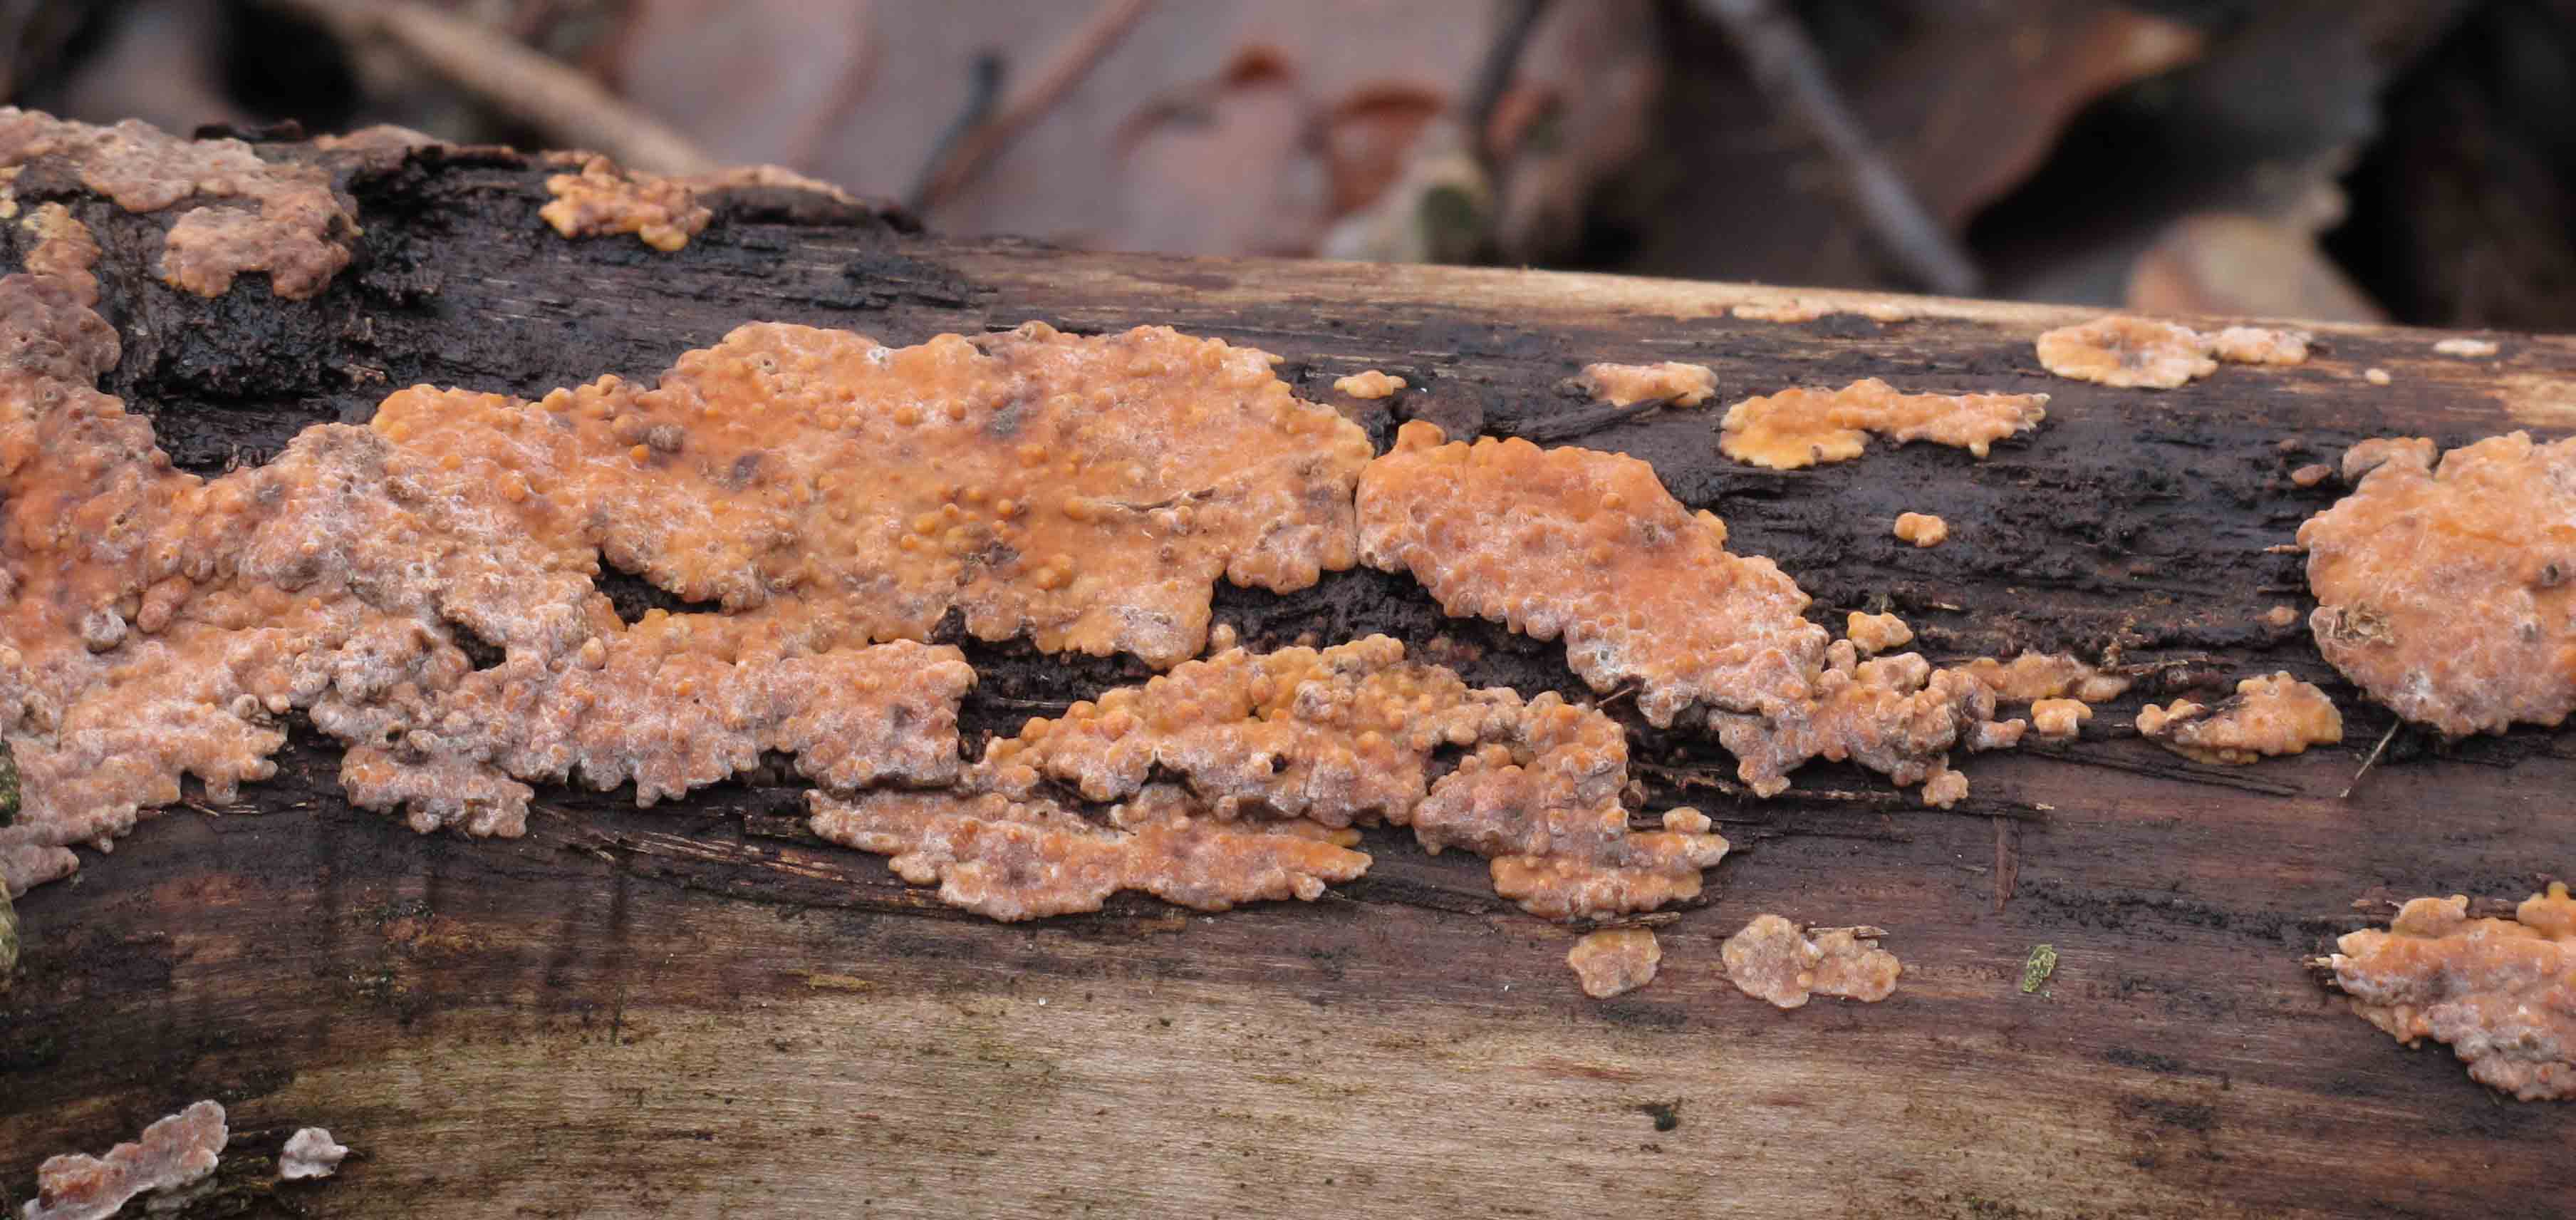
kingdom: Fungi
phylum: Basidiomycota
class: Agaricomycetes
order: Russulales
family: Peniophoraceae
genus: Peniophora
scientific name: Peniophora polygonia
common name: polygon-voksskind
